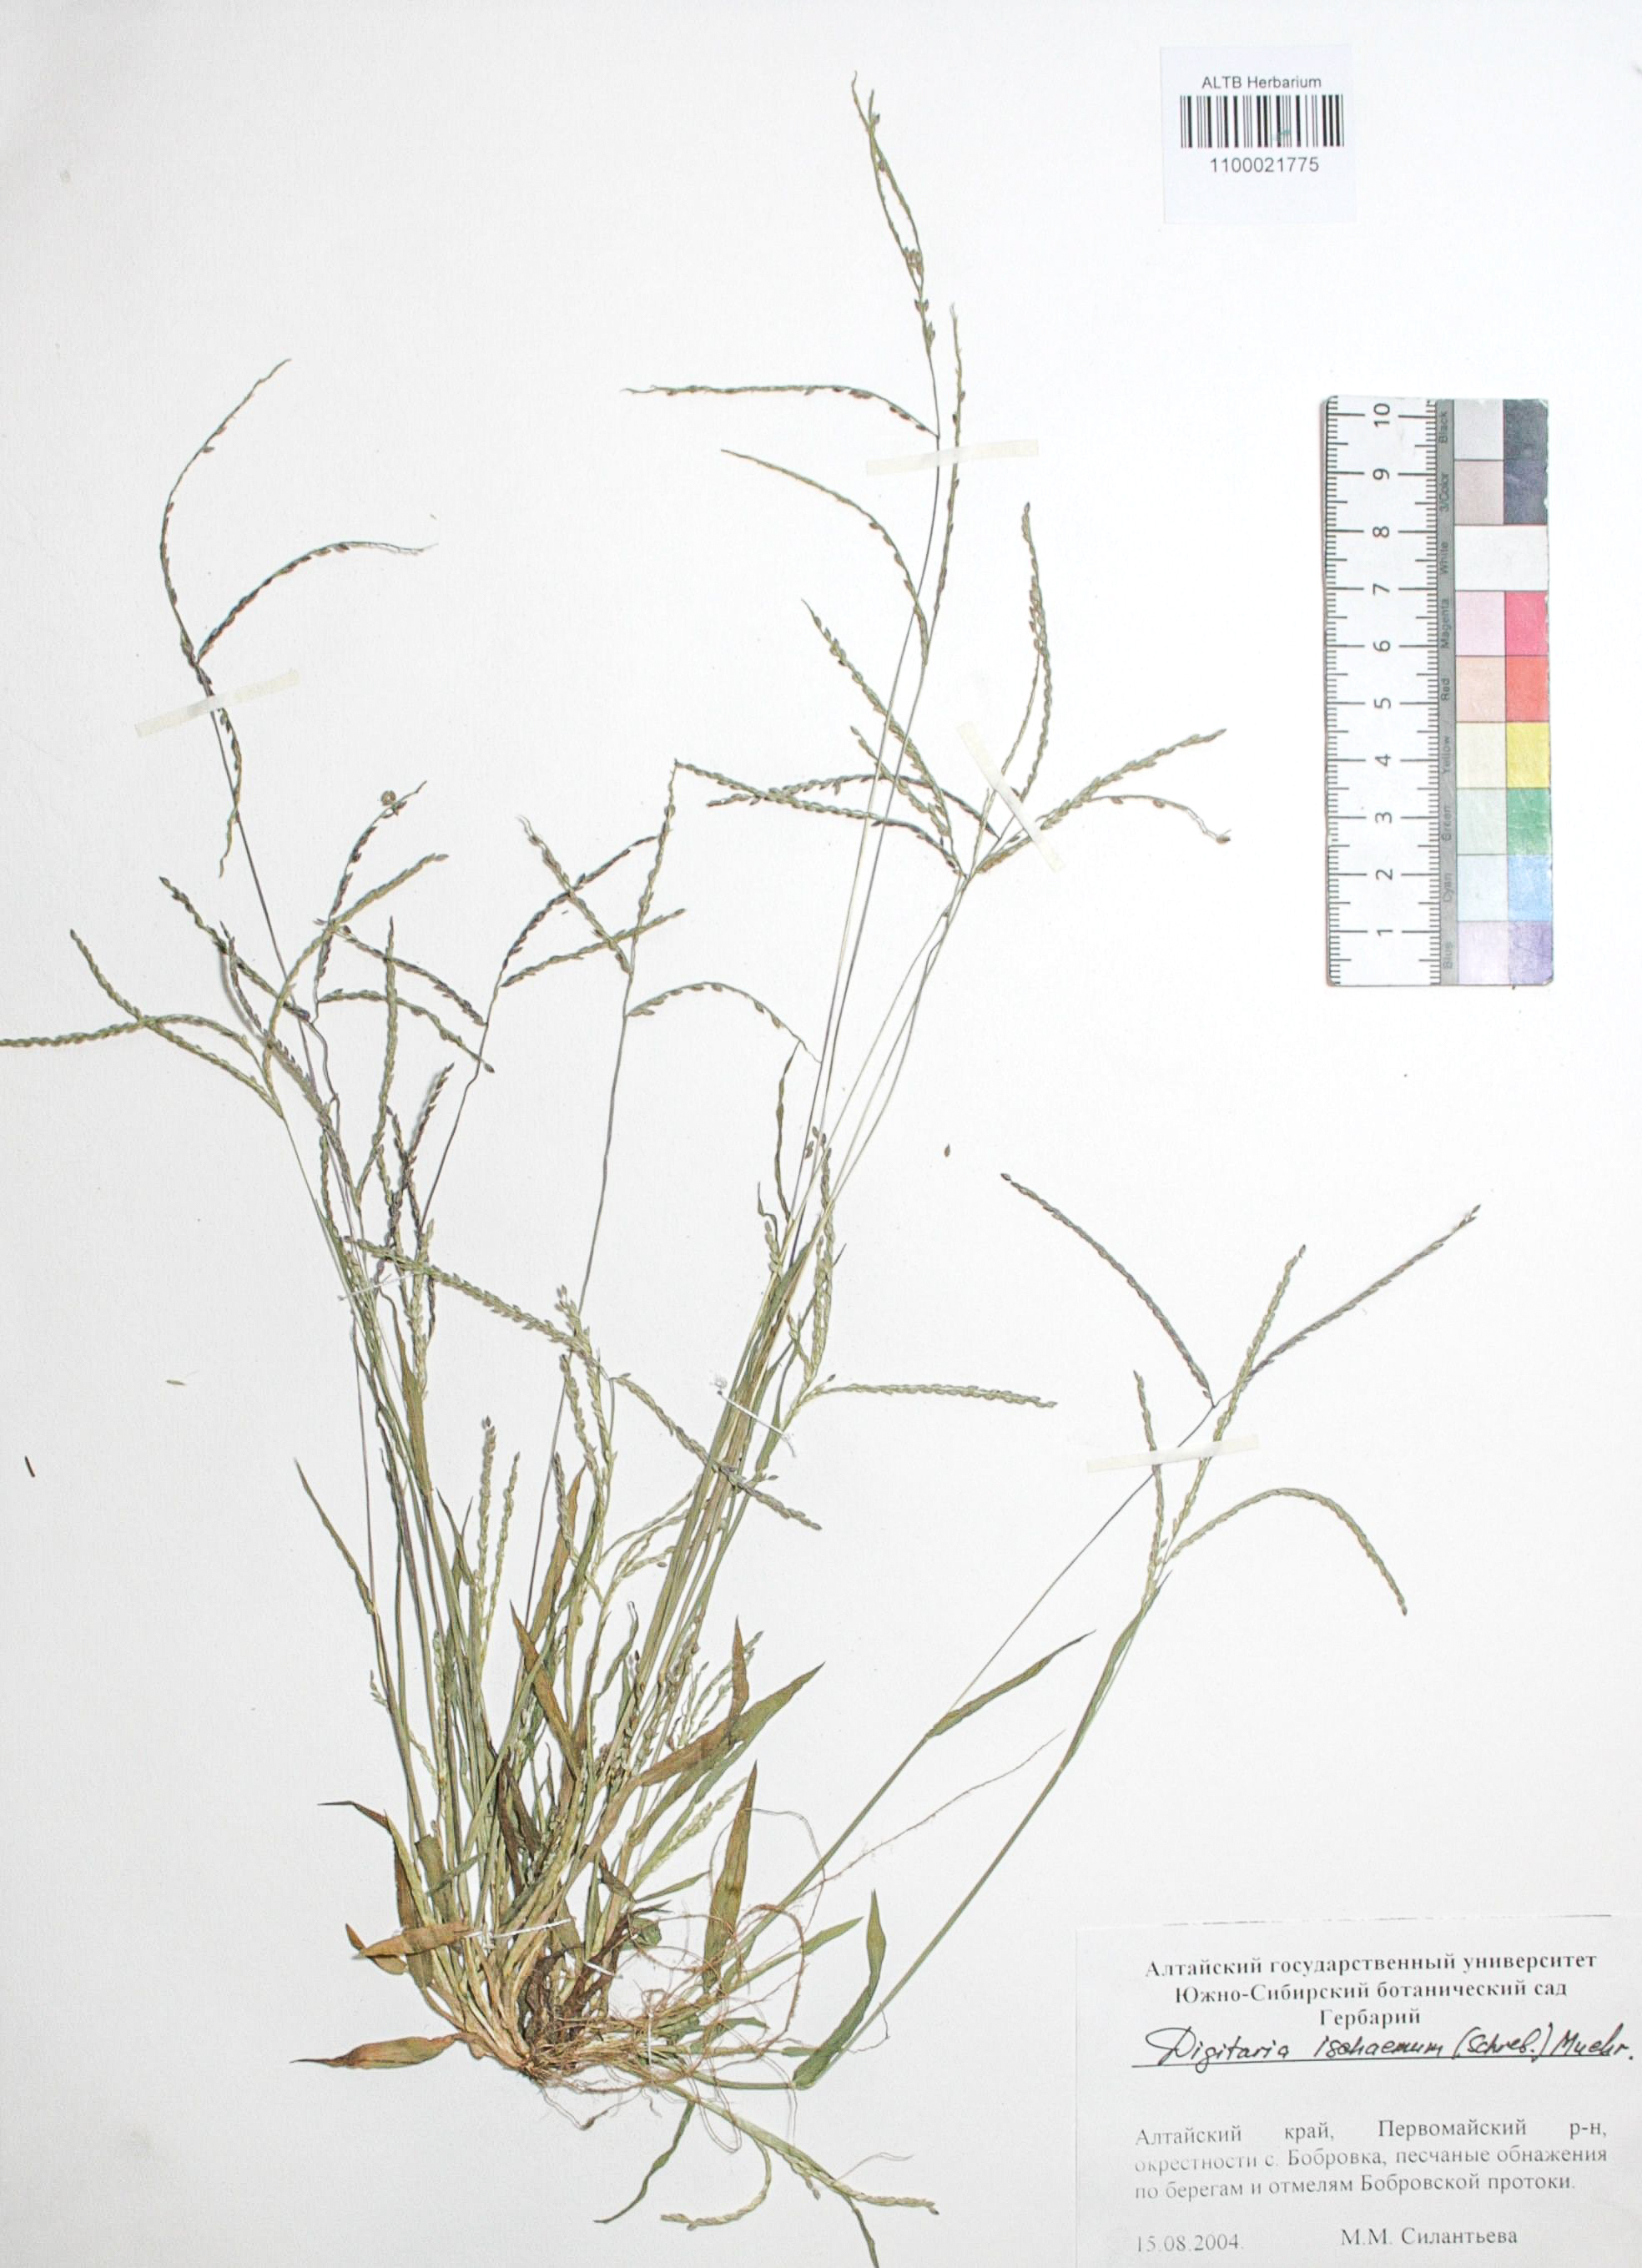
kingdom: Plantae
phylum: Tracheophyta
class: Liliopsida
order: Poales
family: Poaceae
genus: Digitaria
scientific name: Digitaria ischaemum
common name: Smooth crabgrass
